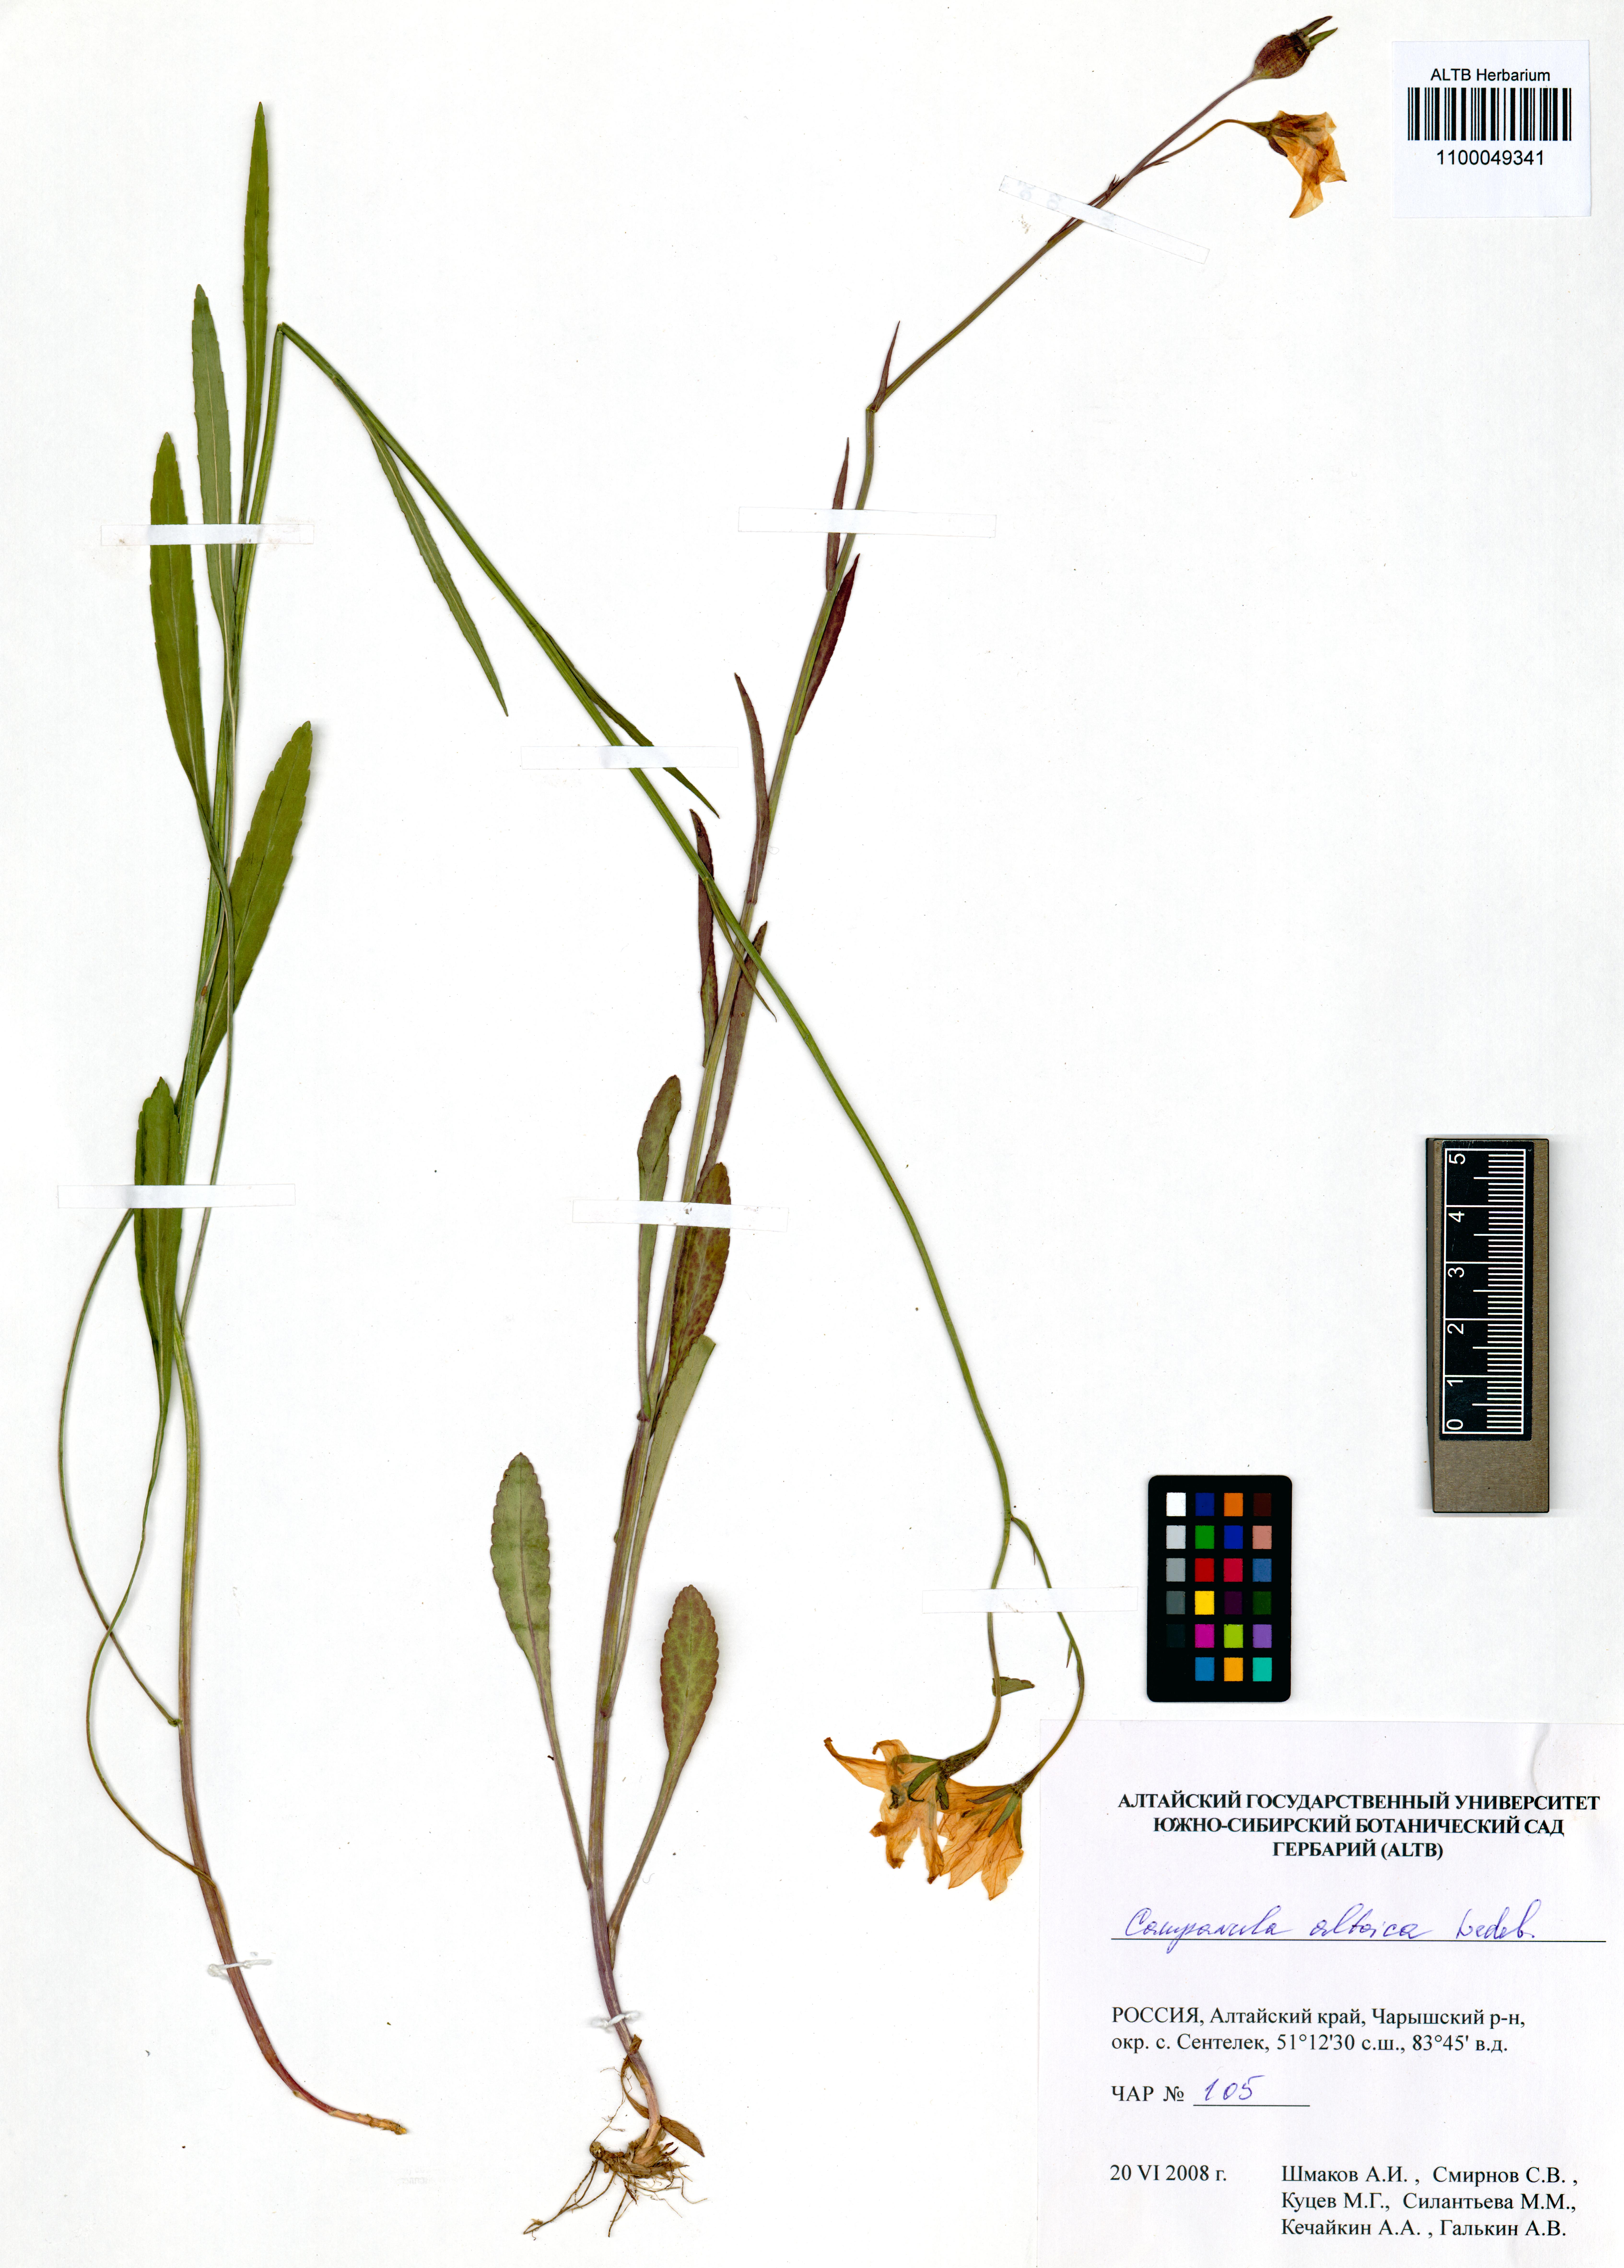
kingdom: Plantae
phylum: Tracheophyta
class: Magnoliopsida
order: Asterales
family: Campanulaceae
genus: Campanula
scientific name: Campanula stevenii
